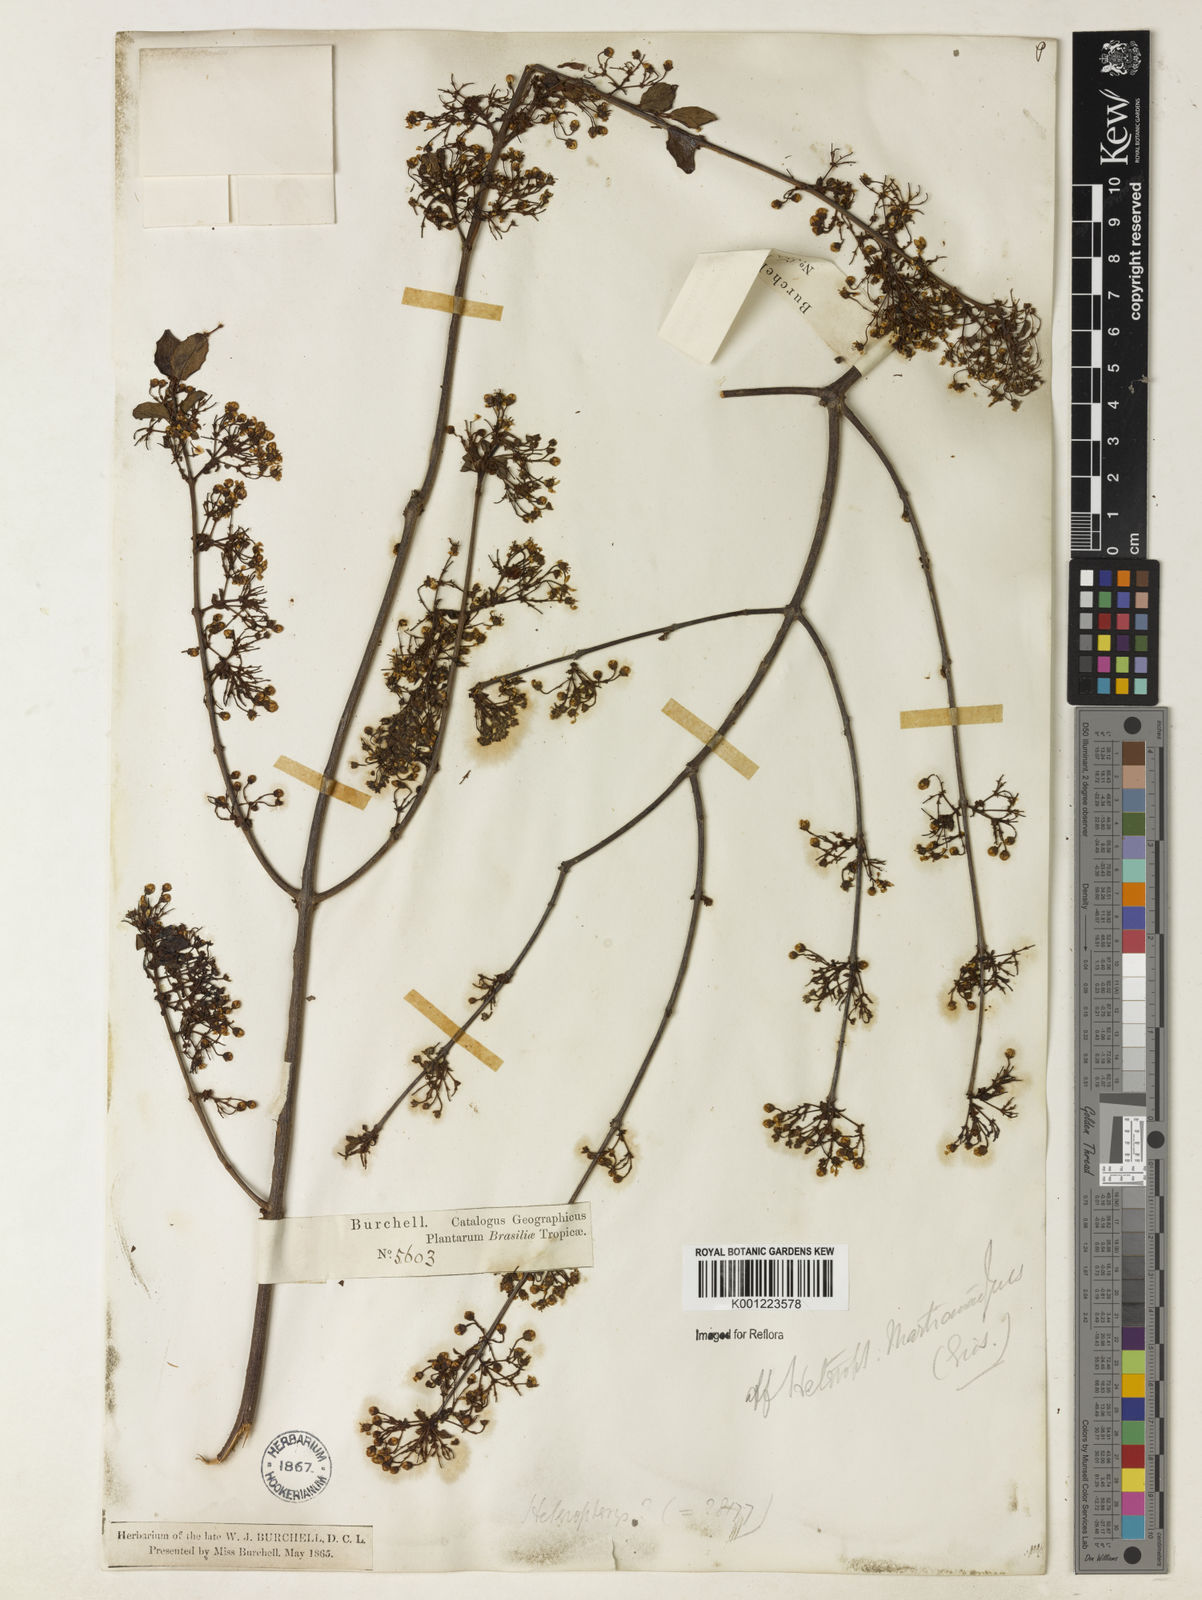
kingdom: Plantae
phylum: Tracheophyta
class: Magnoliopsida
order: Malpighiales
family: Malpighiaceae
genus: Heteropterys
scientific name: Heteropterys syringifolia
